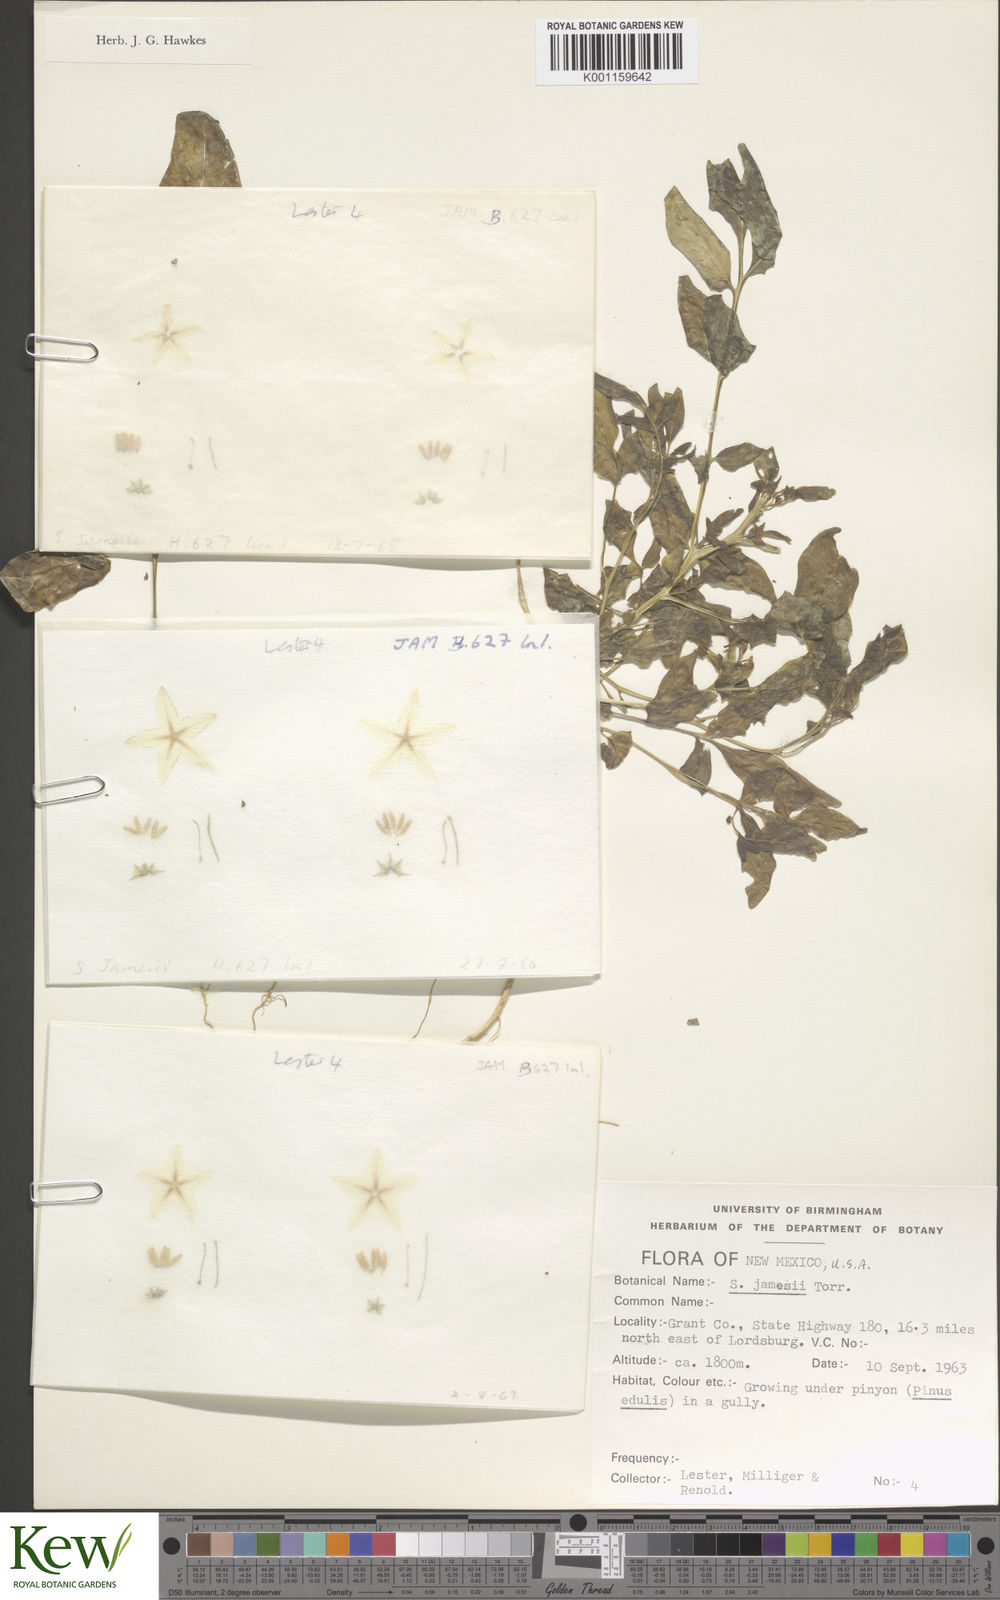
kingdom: Plantae
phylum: Tracheophyta
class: Magnoliopsida
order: Solanales
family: Solanaceae
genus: Solanum
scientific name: Solanum jamesii
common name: Wild potato
